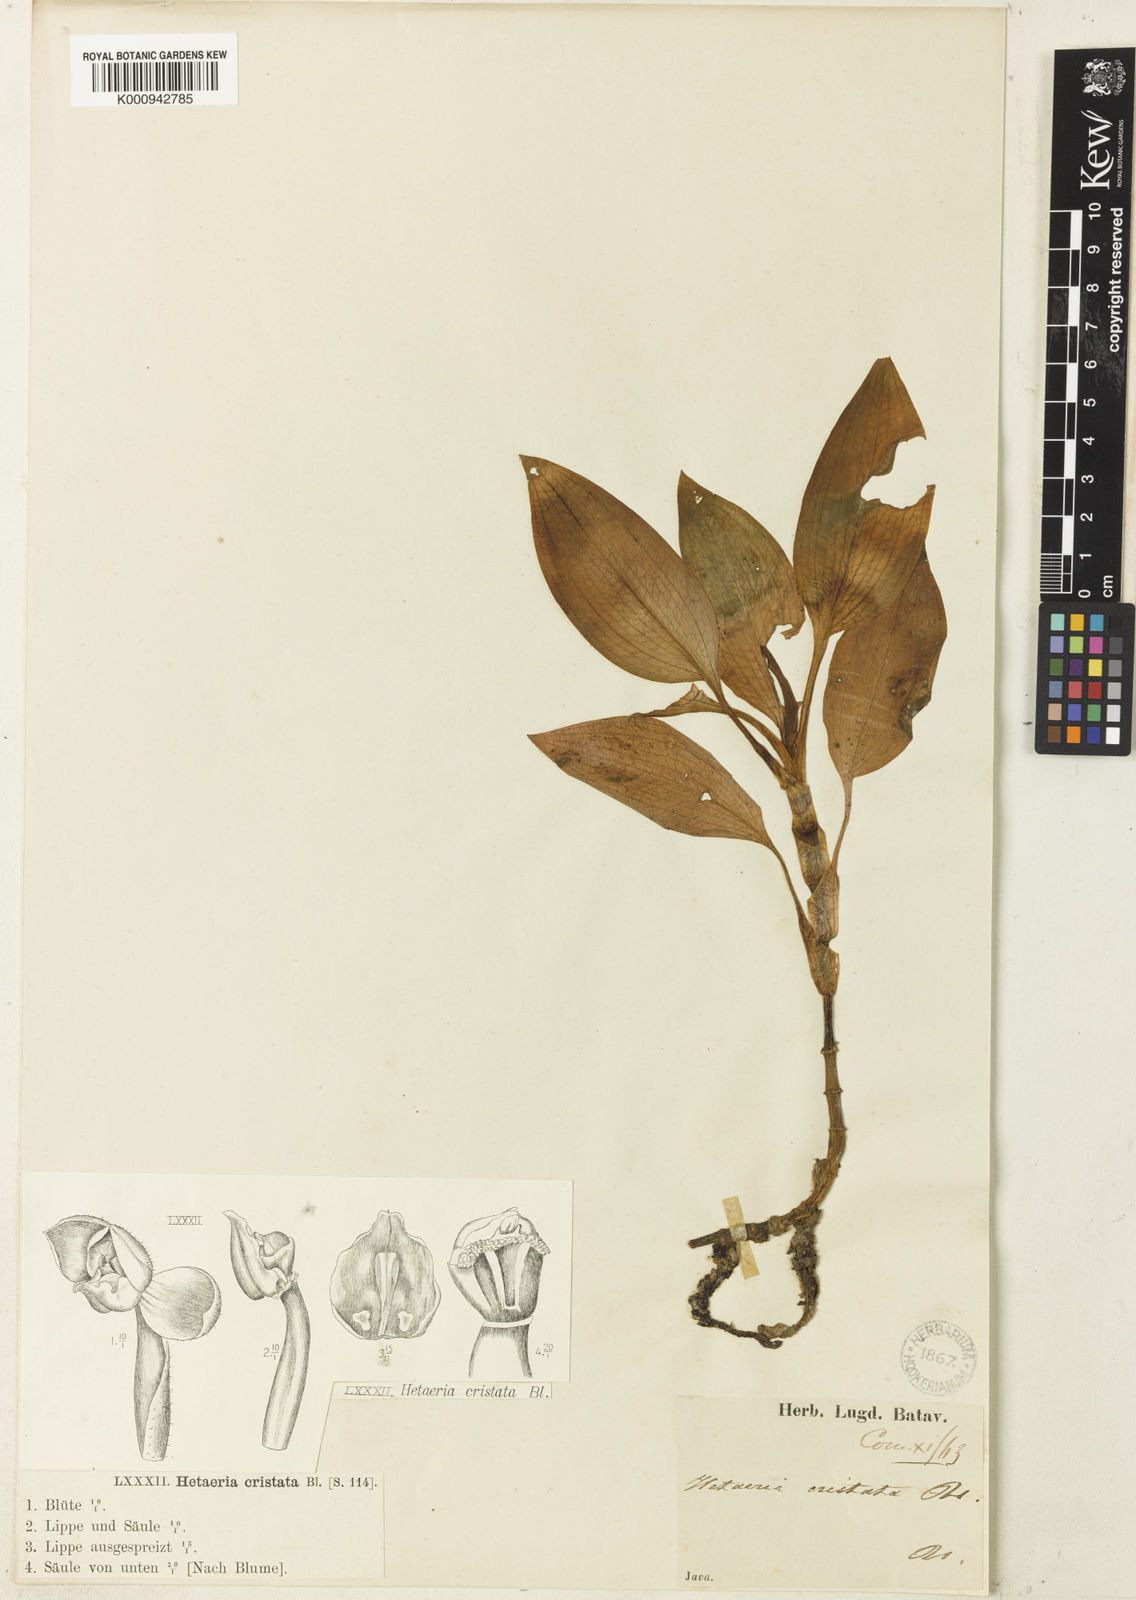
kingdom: Plantae
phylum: Tracheophyta
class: Liliopsida
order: Asparagales
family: Orchidaceae
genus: Rhomboda
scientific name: Rhomboda cristata
